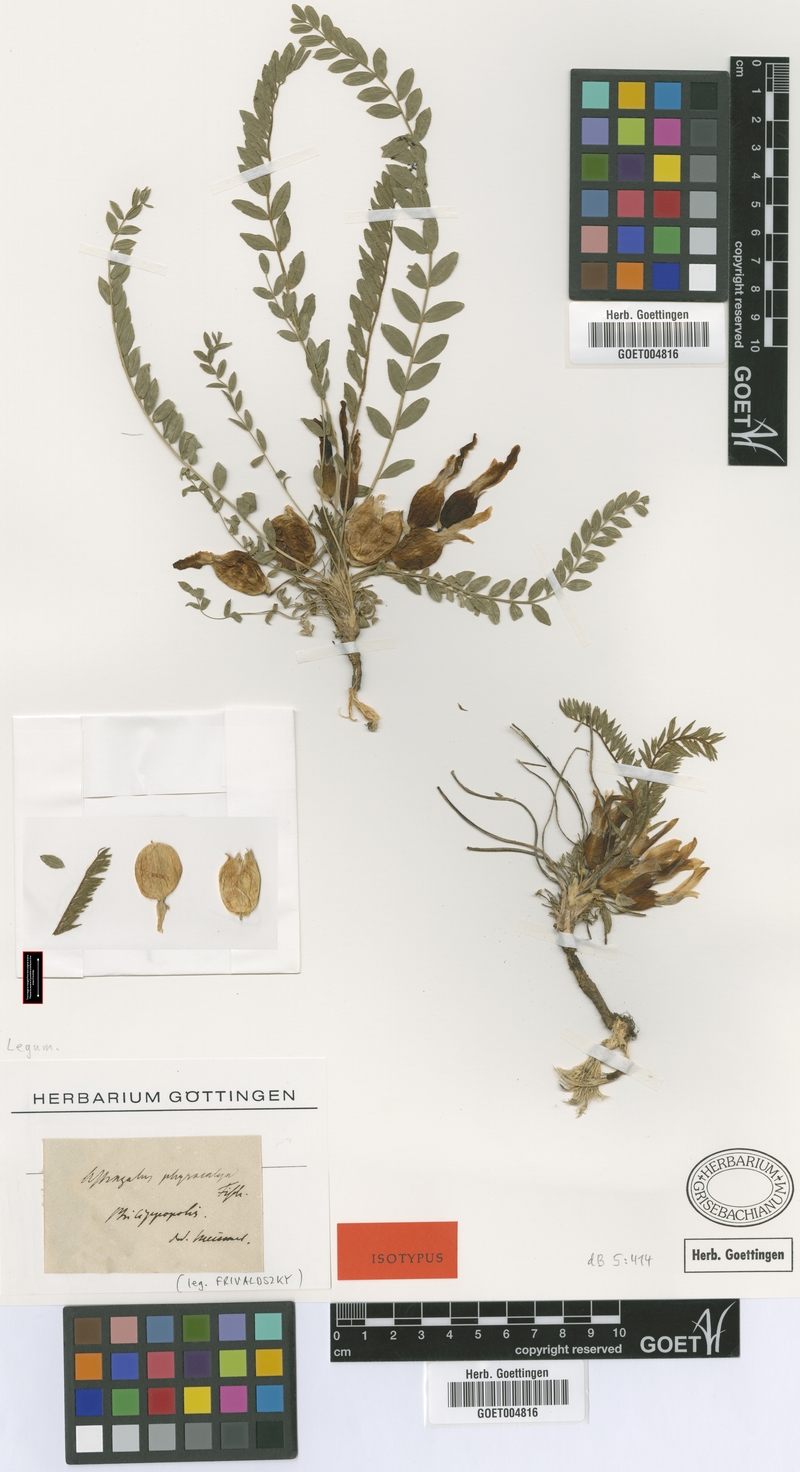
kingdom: Plantae
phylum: Tracheophyta
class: Magnoliopsida
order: Fabales
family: Fabaceae
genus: Astragalus
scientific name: Astragalus physocalyx
